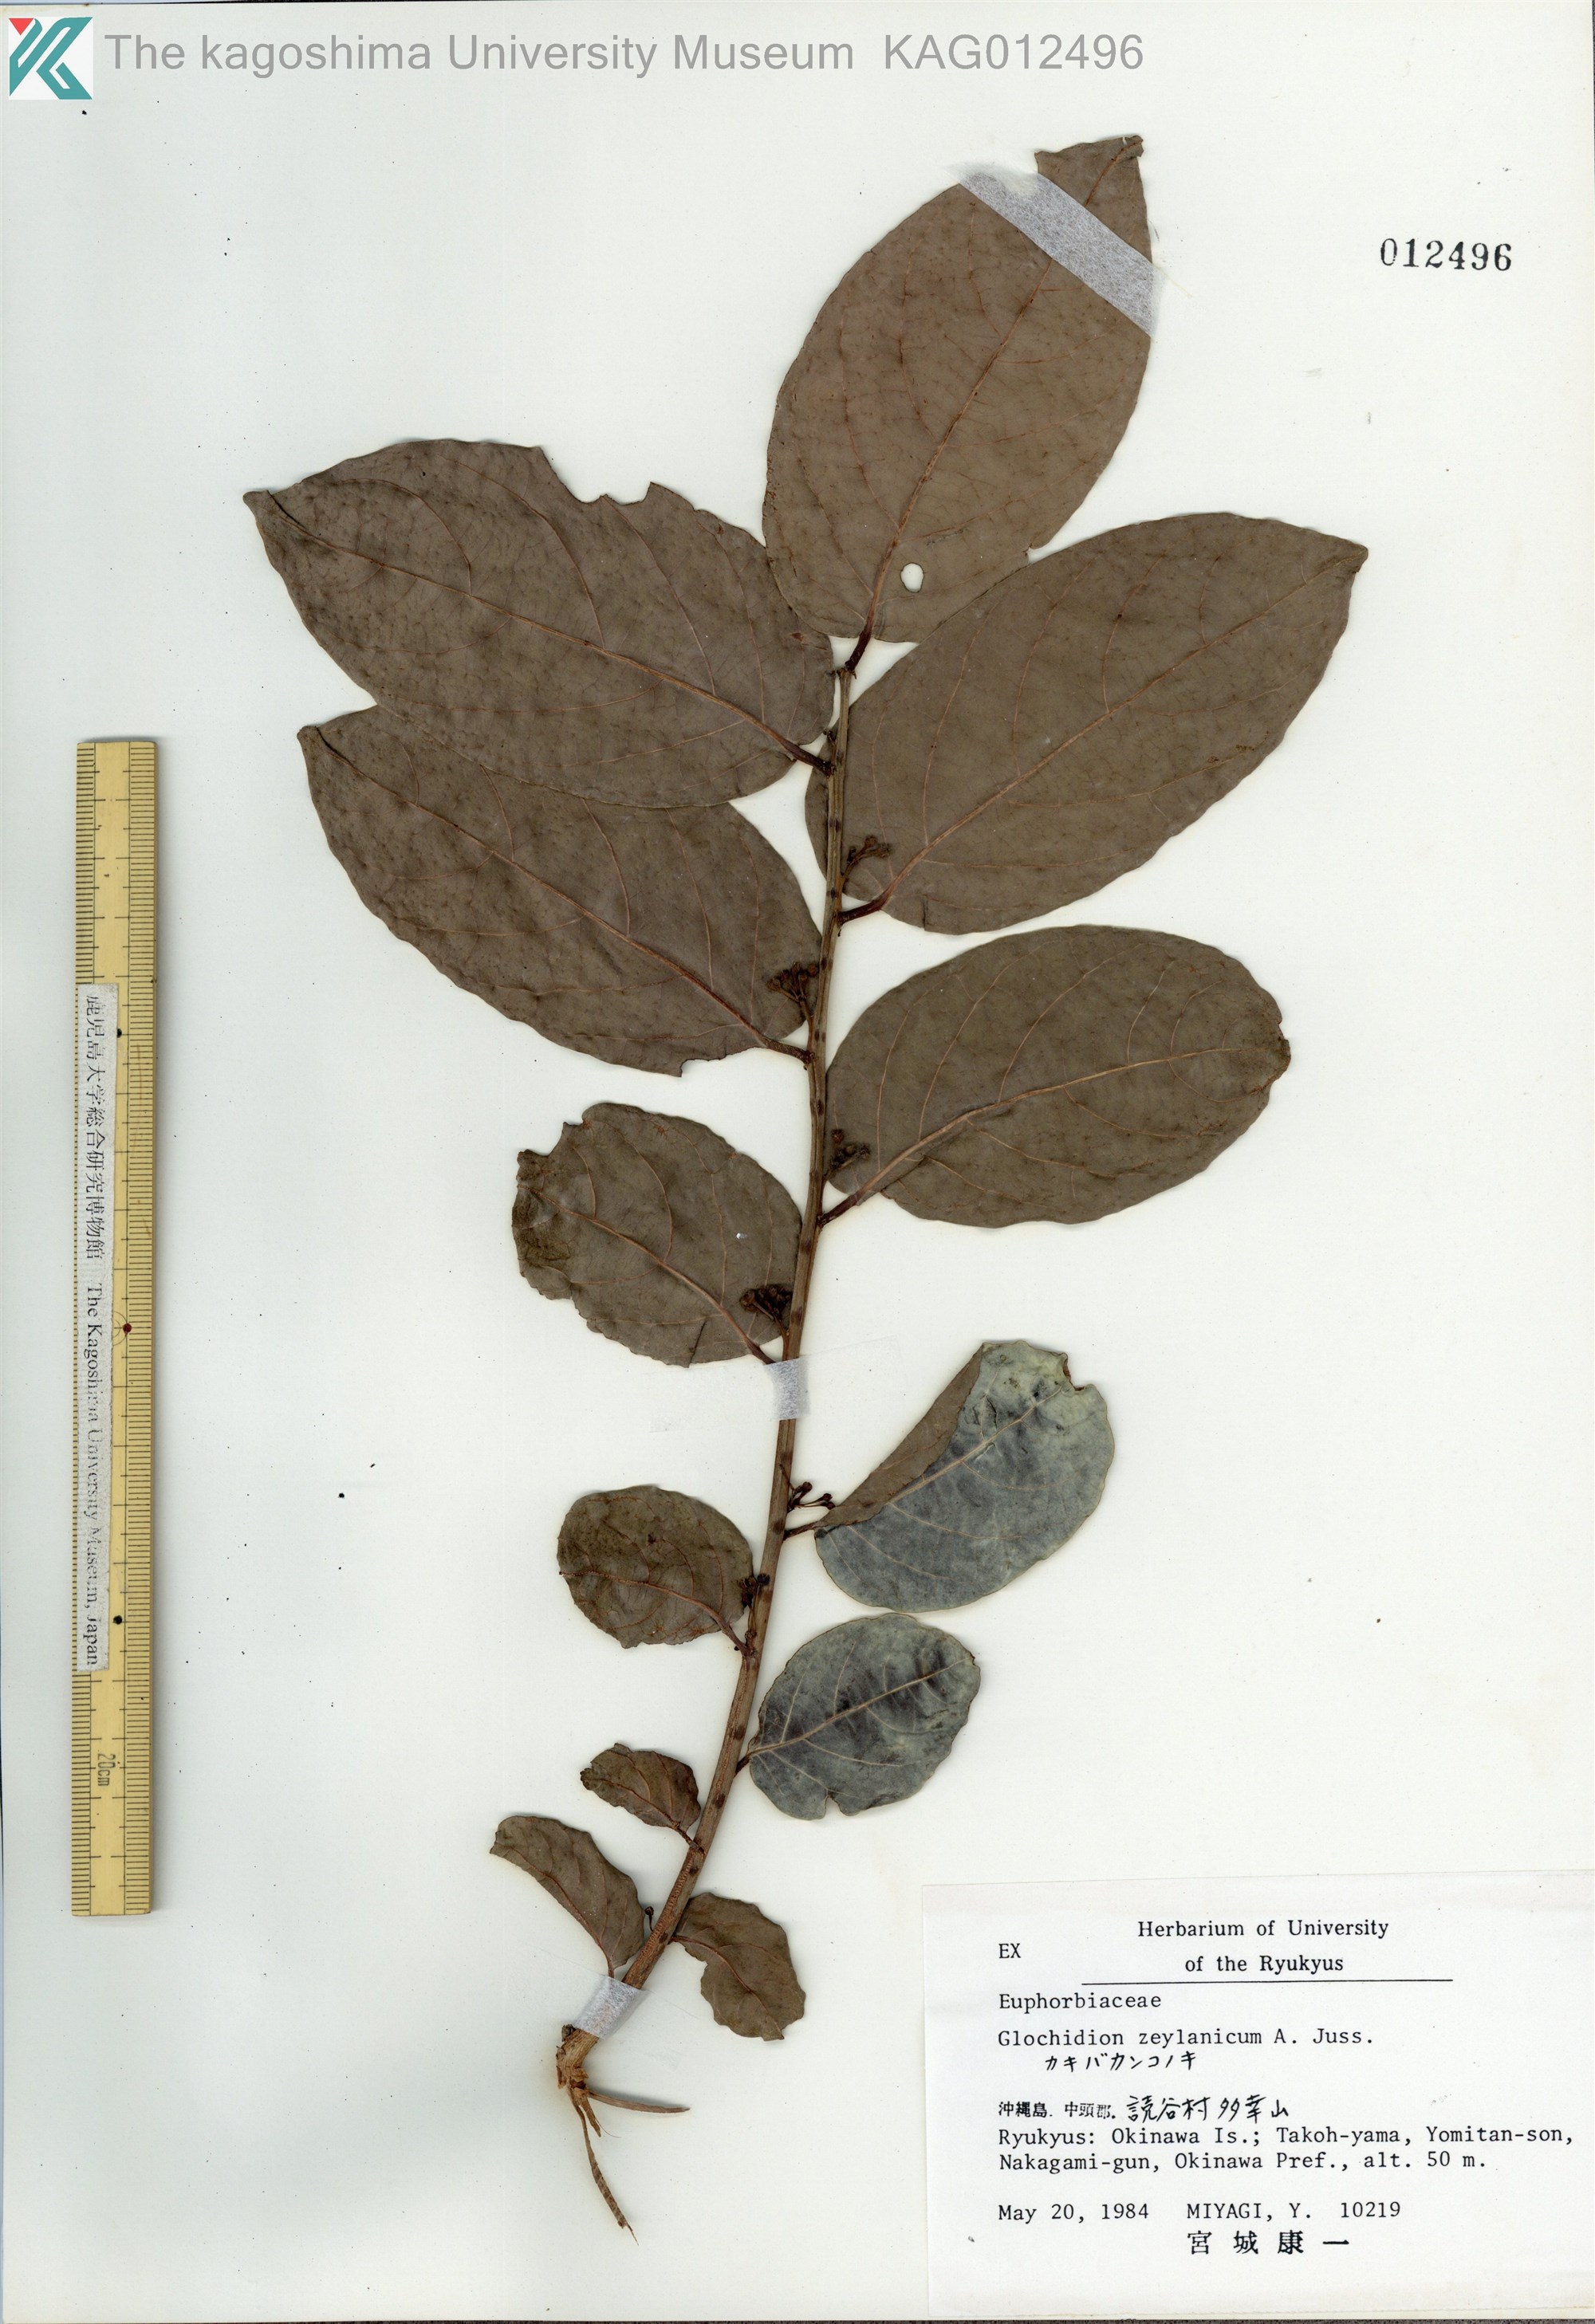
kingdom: Plantae
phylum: Tracheophyta
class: Magnoliopsida
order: Malpighiales
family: Phyllanthaceae
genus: Glochidion
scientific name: Glochidion zeylanicum
